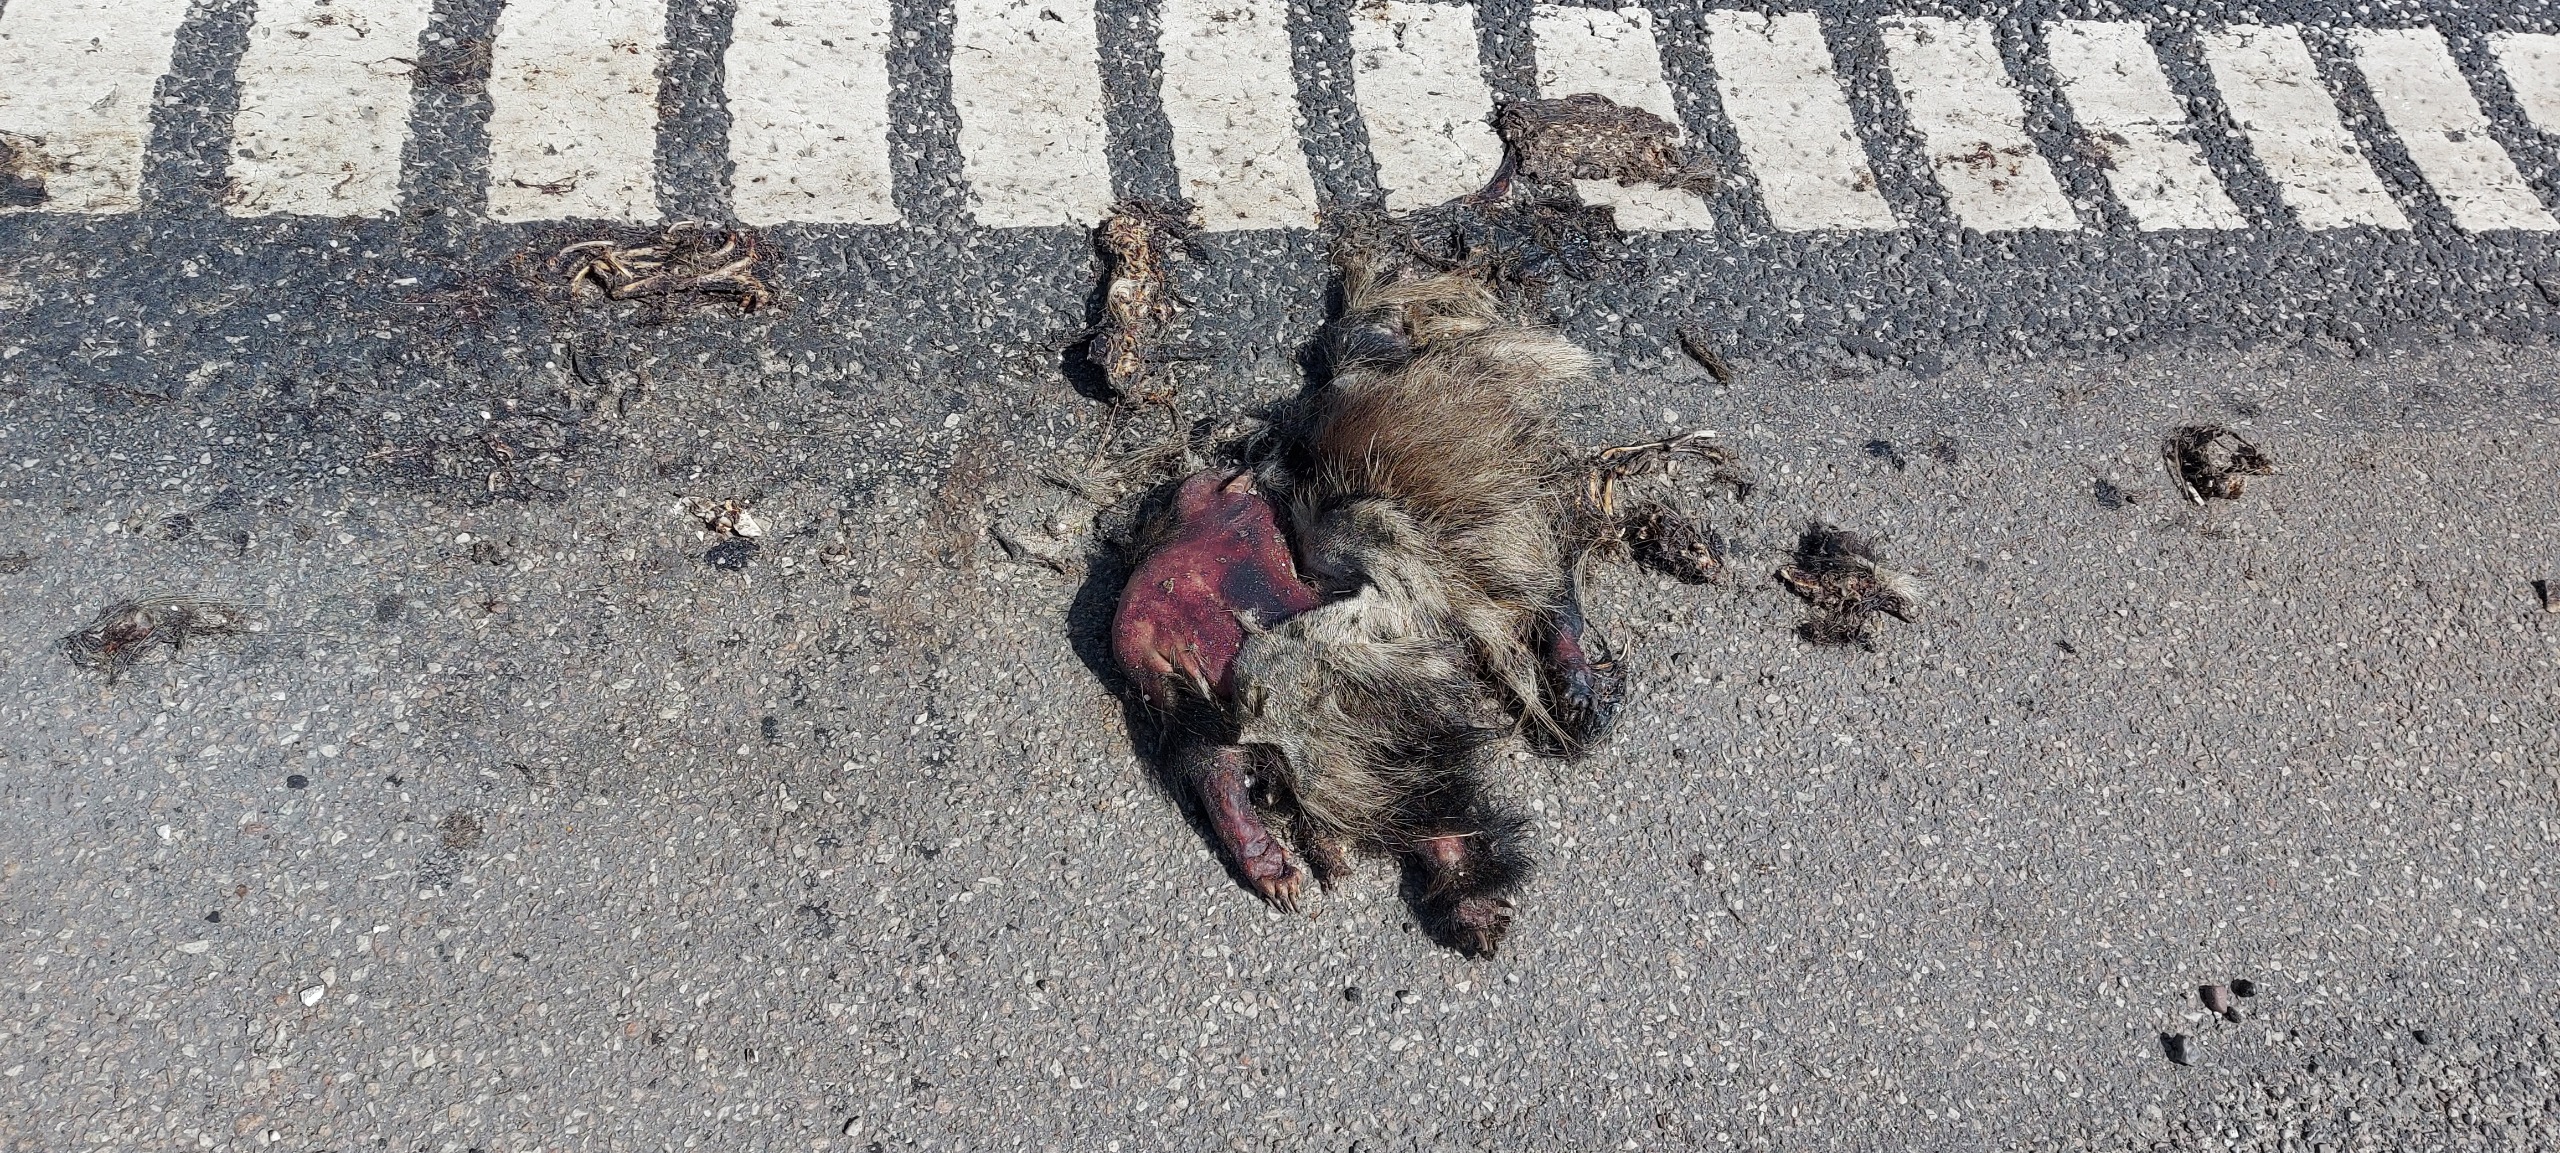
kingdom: Animalia
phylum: Chordata
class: Mammalia
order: Carnivora
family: Canidae
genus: Nyctereutes
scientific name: Nyctereutes procyonoides
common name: Mårhund
